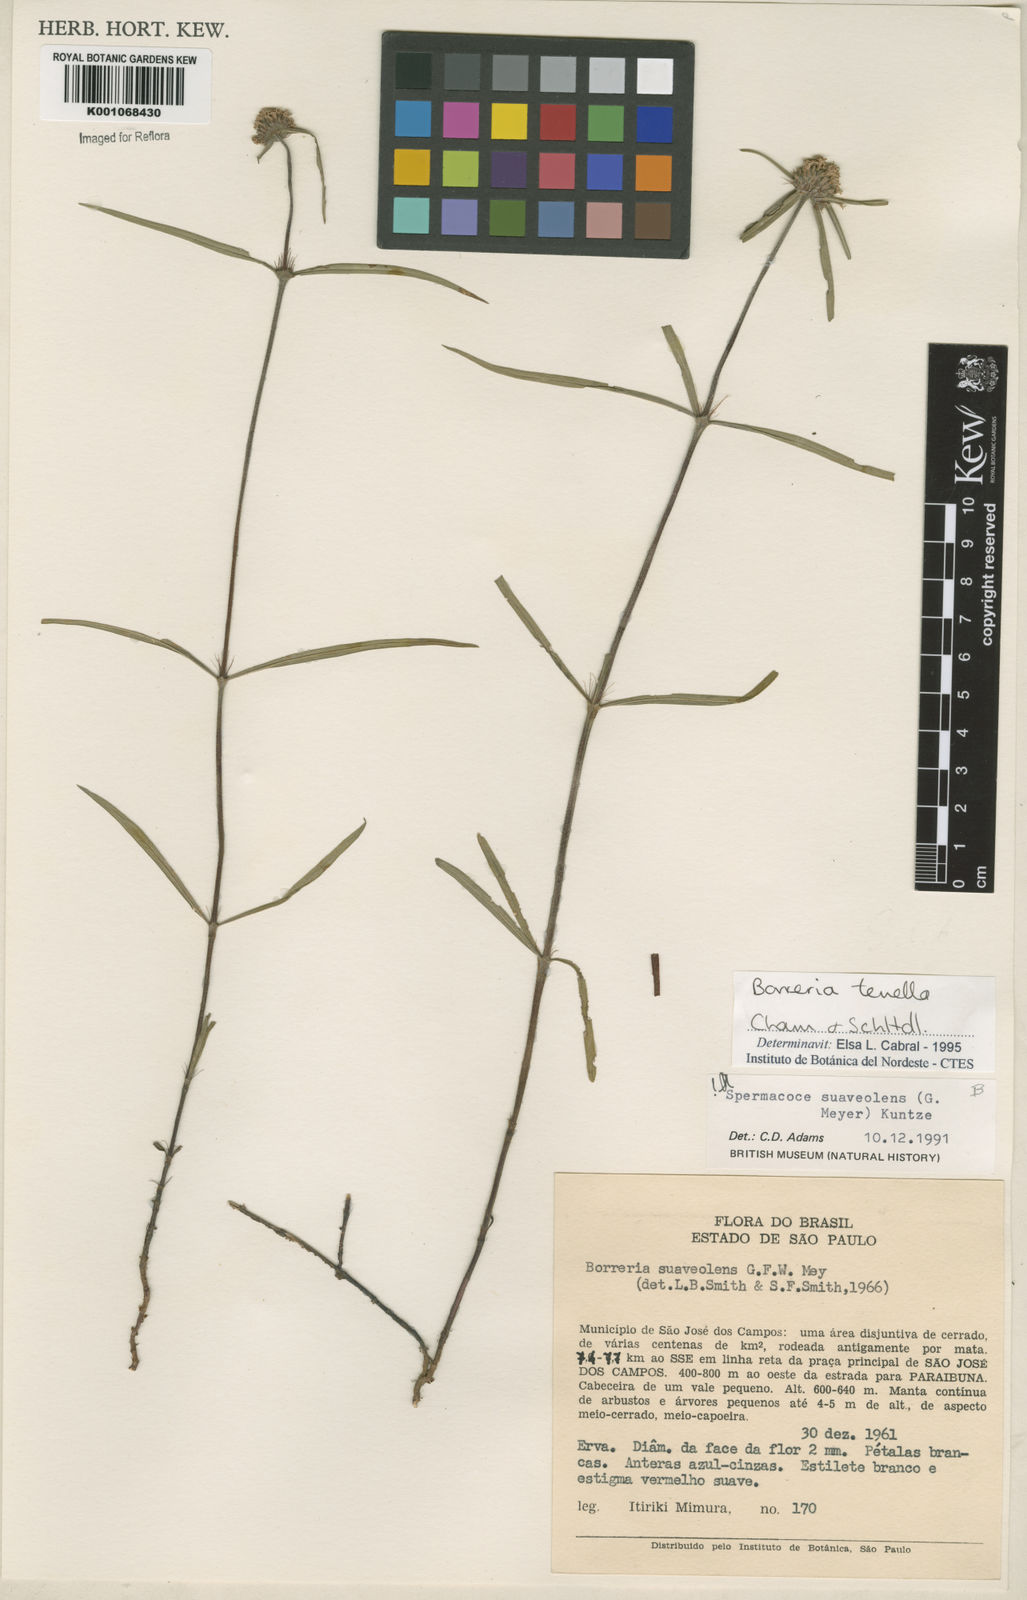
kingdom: Plantae
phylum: Tracheophyta
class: Magnoliopsida
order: Gentianales
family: Rubiaceae
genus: Spermacoce
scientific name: Spermacoce suaveolens
